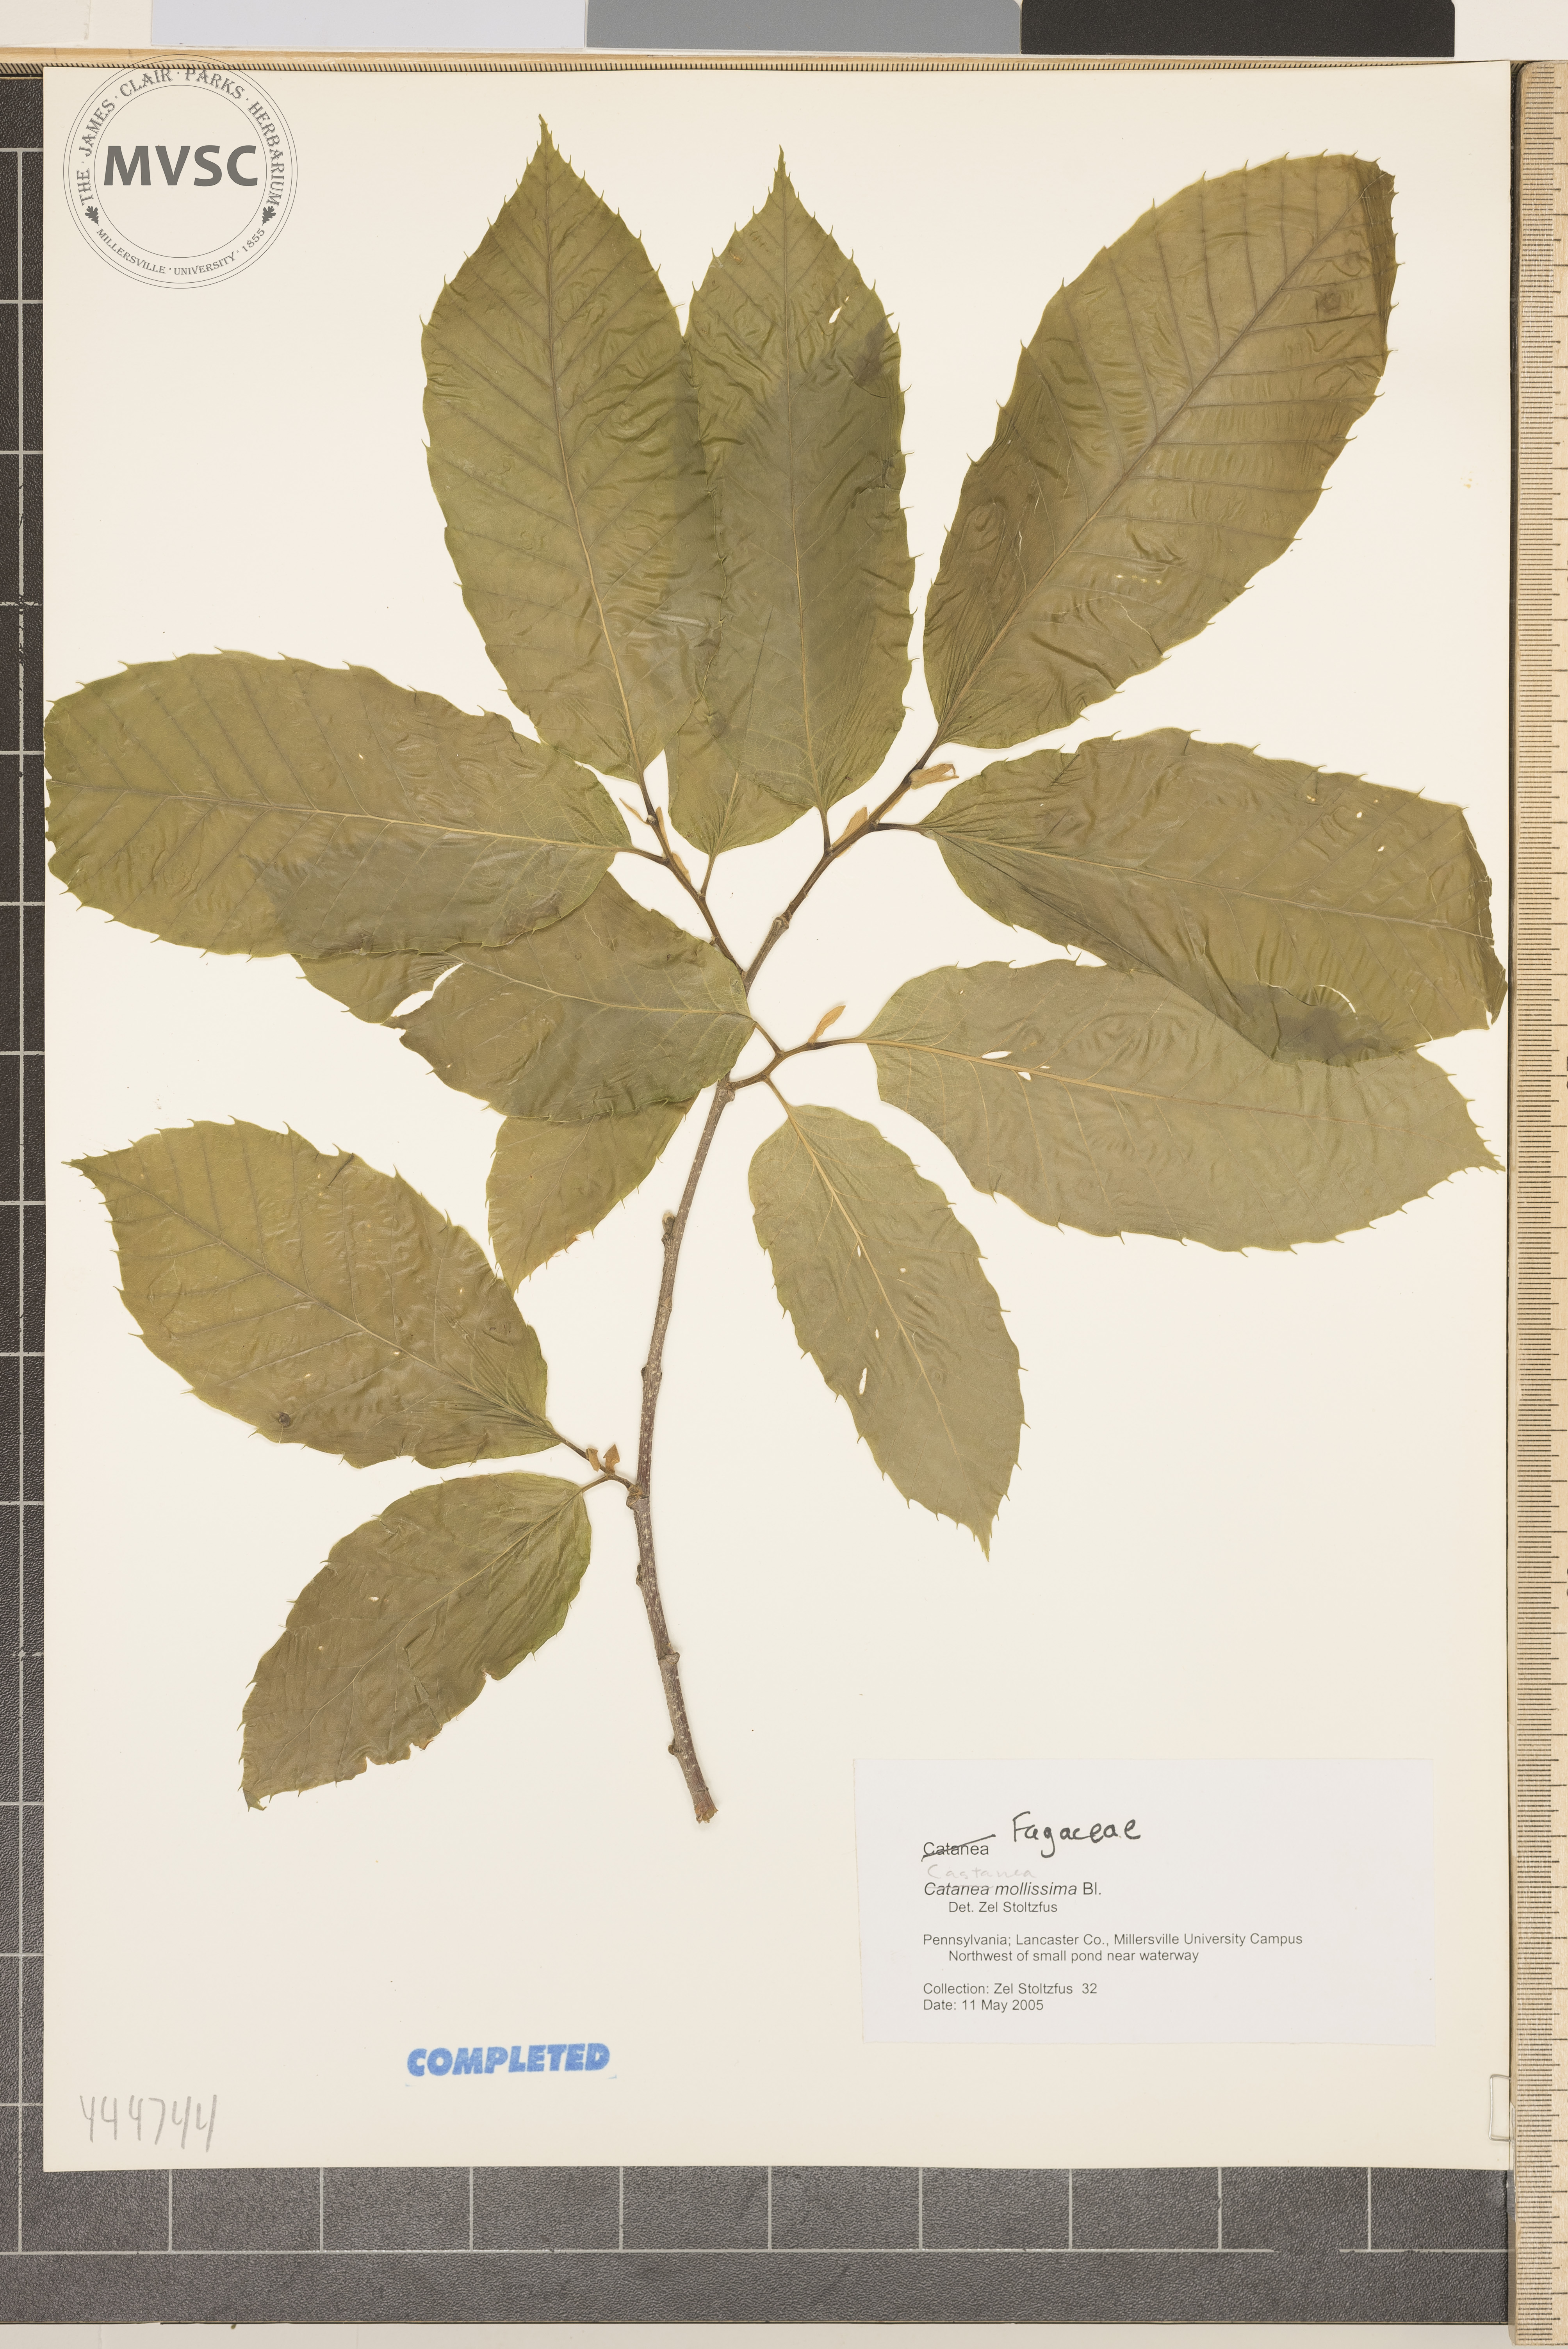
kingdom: Plantae
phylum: Tracheophyta
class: Magnoliopsida
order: Fagales
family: Fagaceae
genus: Castanea
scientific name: Castanea mollissima
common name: Chinese chestnut
